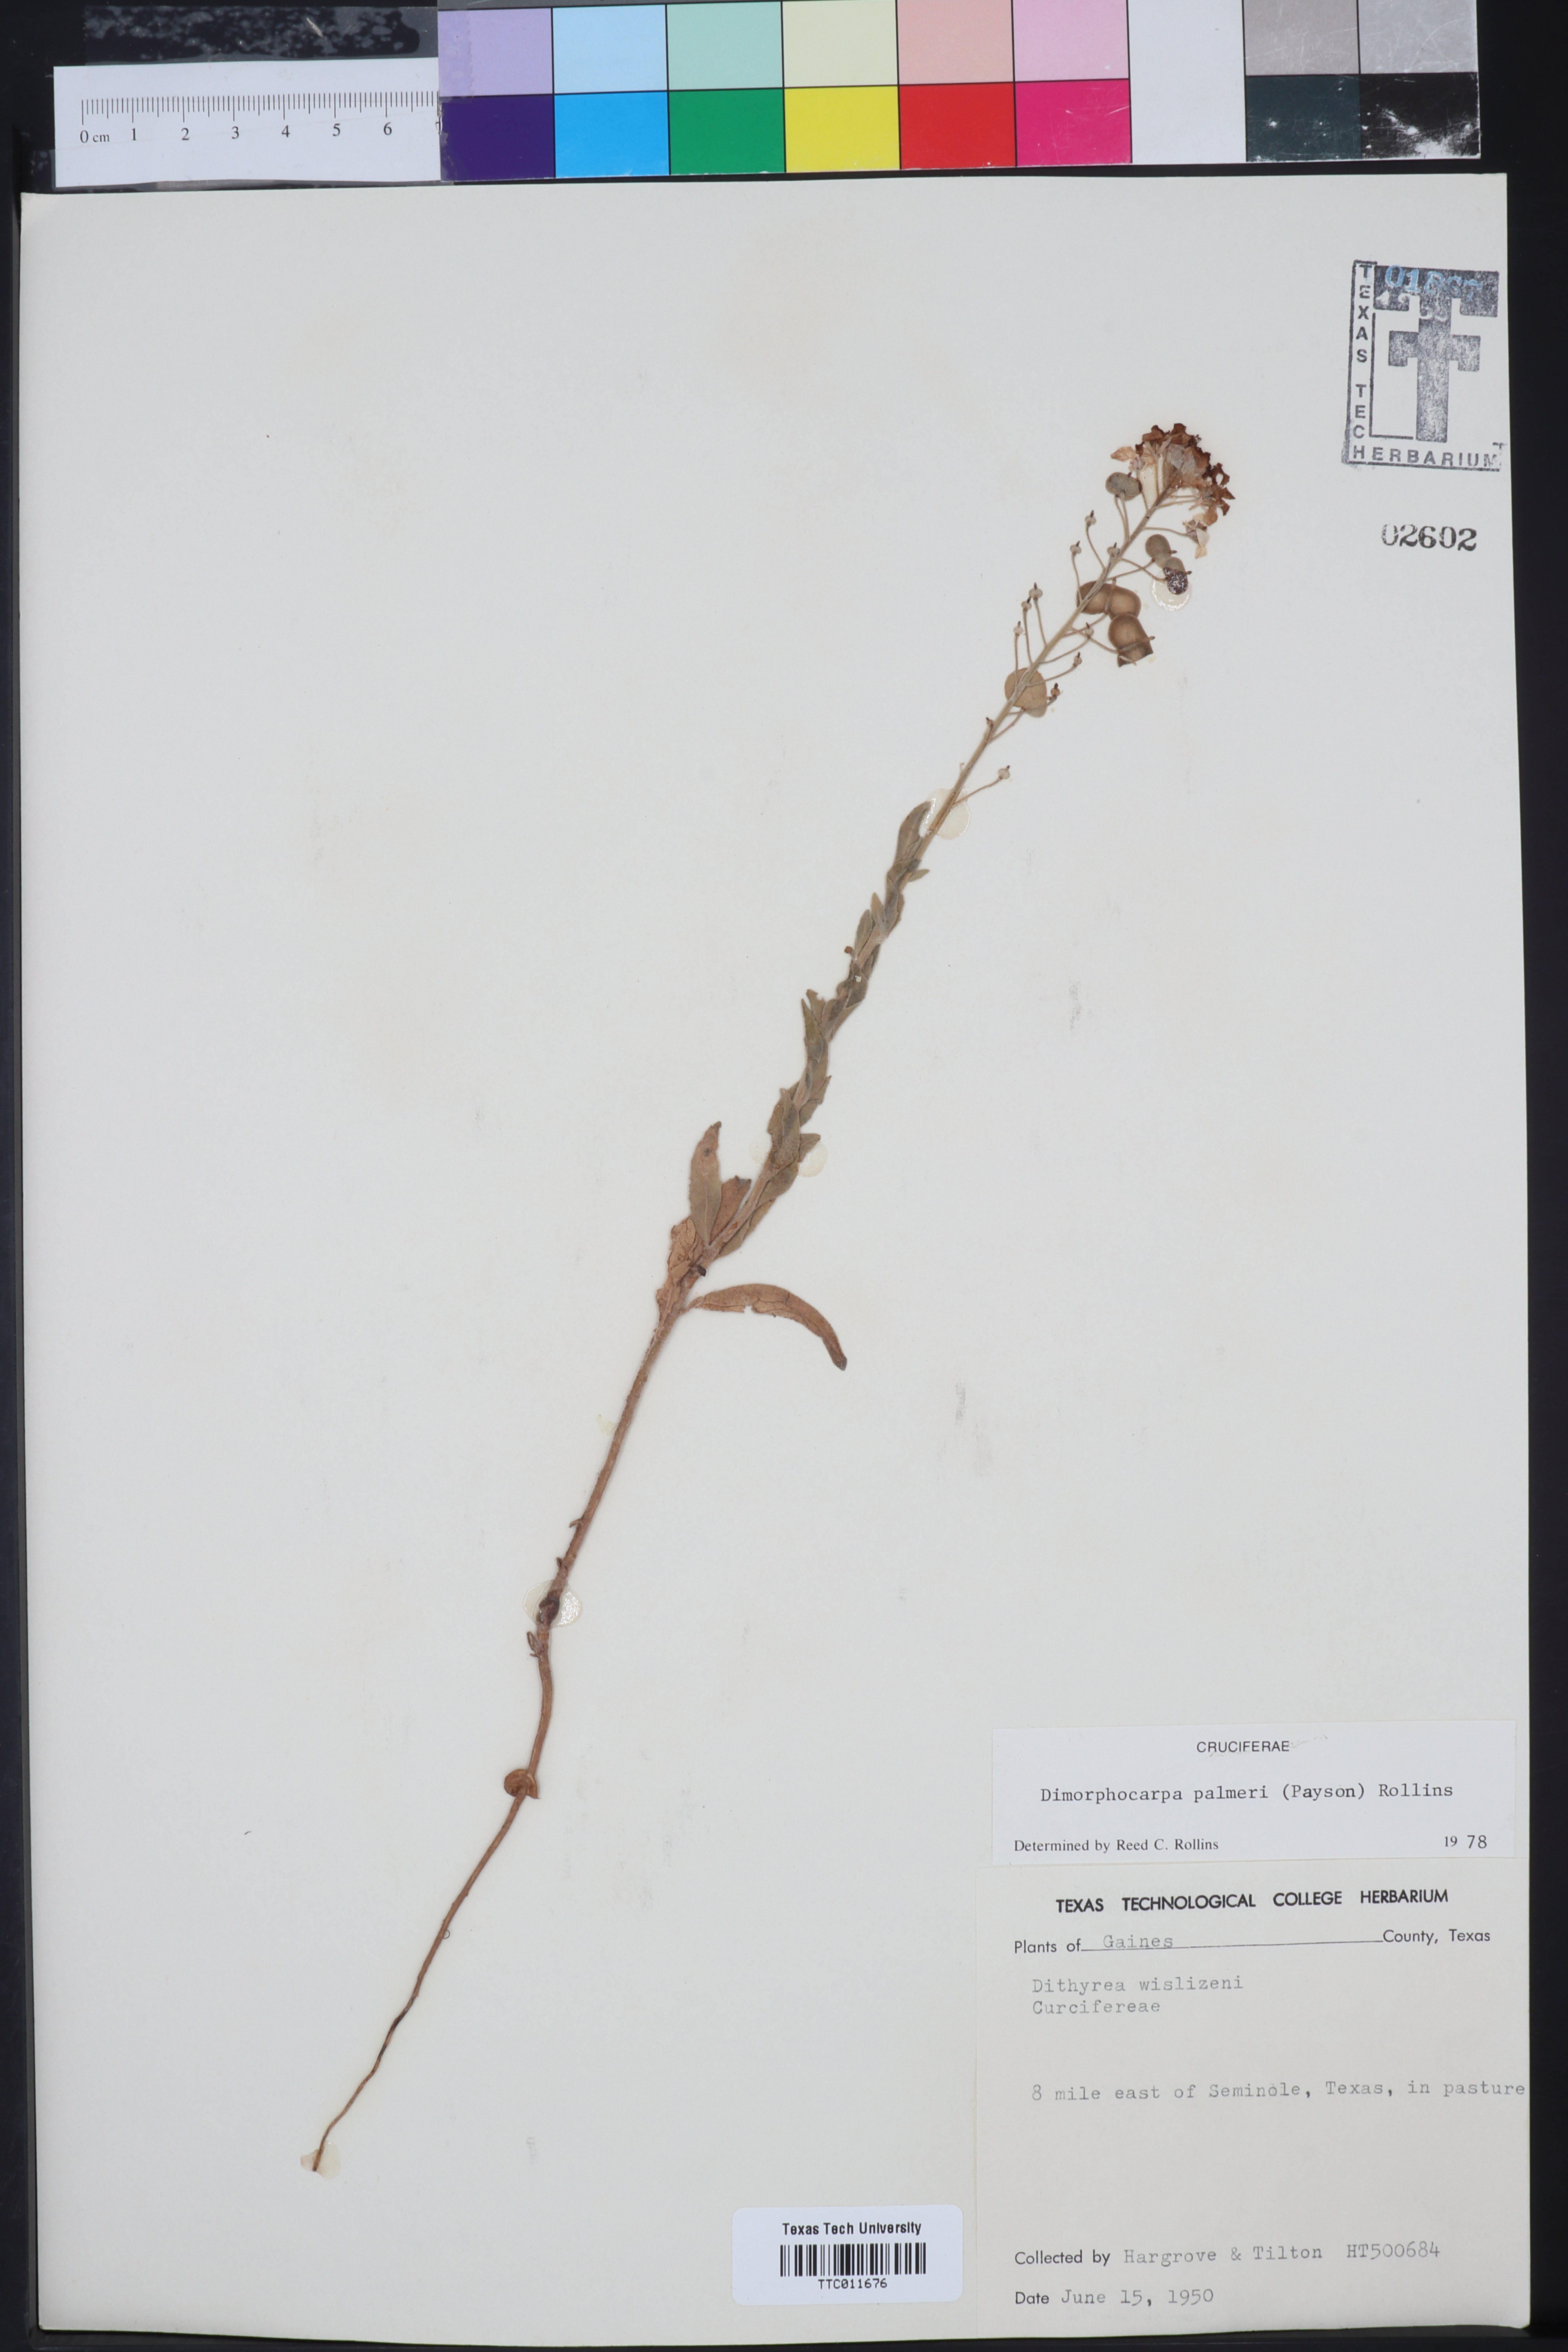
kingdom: Plantae
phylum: Tracheophyta
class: Magnoliopsida
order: Brassicales
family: Brassicaceae
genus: Dimorphocarpa
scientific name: Dimorphocarpa candicans
